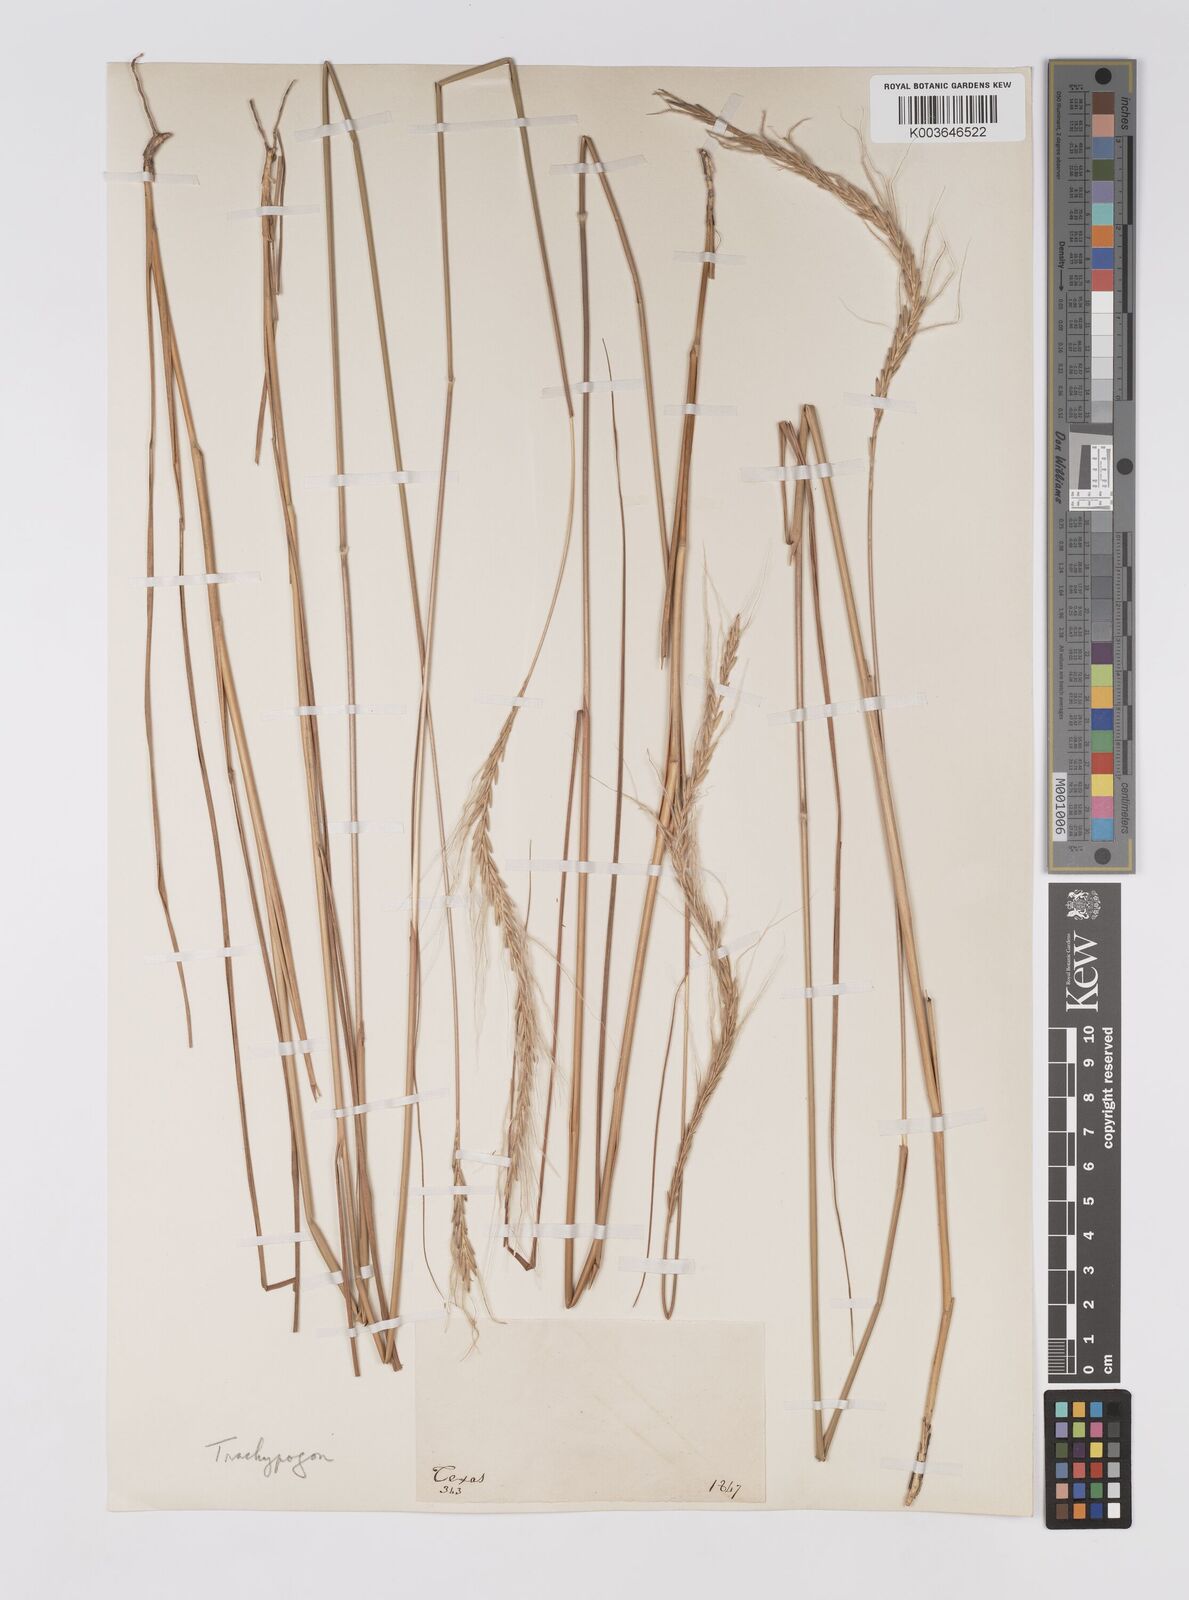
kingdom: Plantae
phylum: Tracheophyta
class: Liliopsida
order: Poales
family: Poaceae
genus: Trachypogon
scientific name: Trachypogon spicatus
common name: Crinkle-awn
